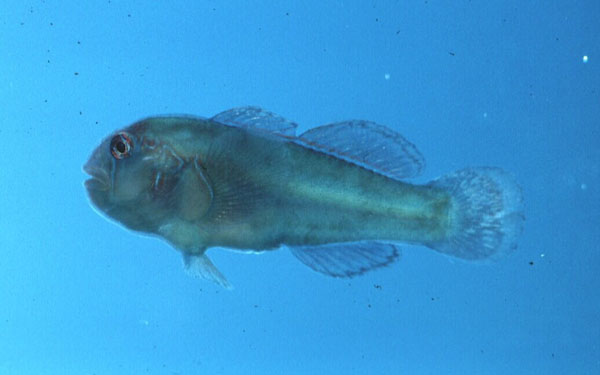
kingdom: Animalia
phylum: Chordata
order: Perciformes
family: Gobiidae
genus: Gobiodon
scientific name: Gobiodon
